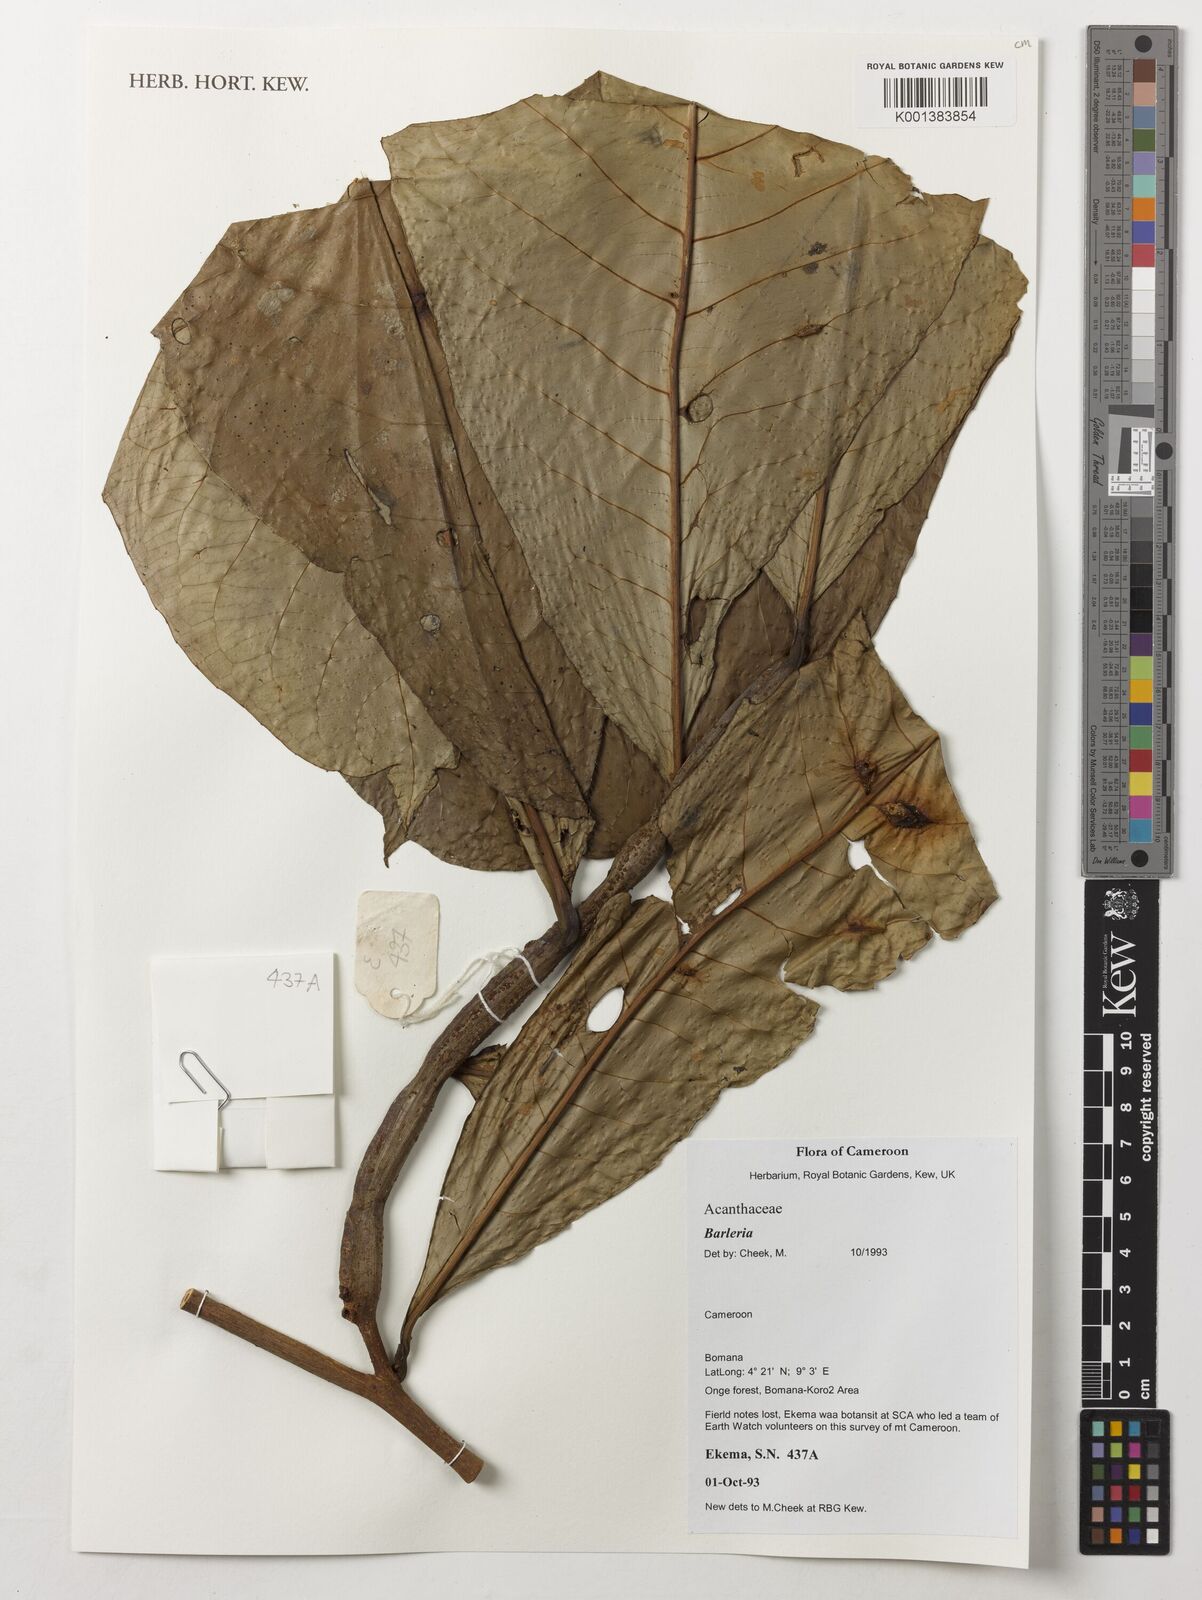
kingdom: Plantae
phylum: Tracheophyta
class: Magnoliopsida
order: Malpighiales
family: Passifloraceae
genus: Barteria
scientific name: Barteria fistulosa
